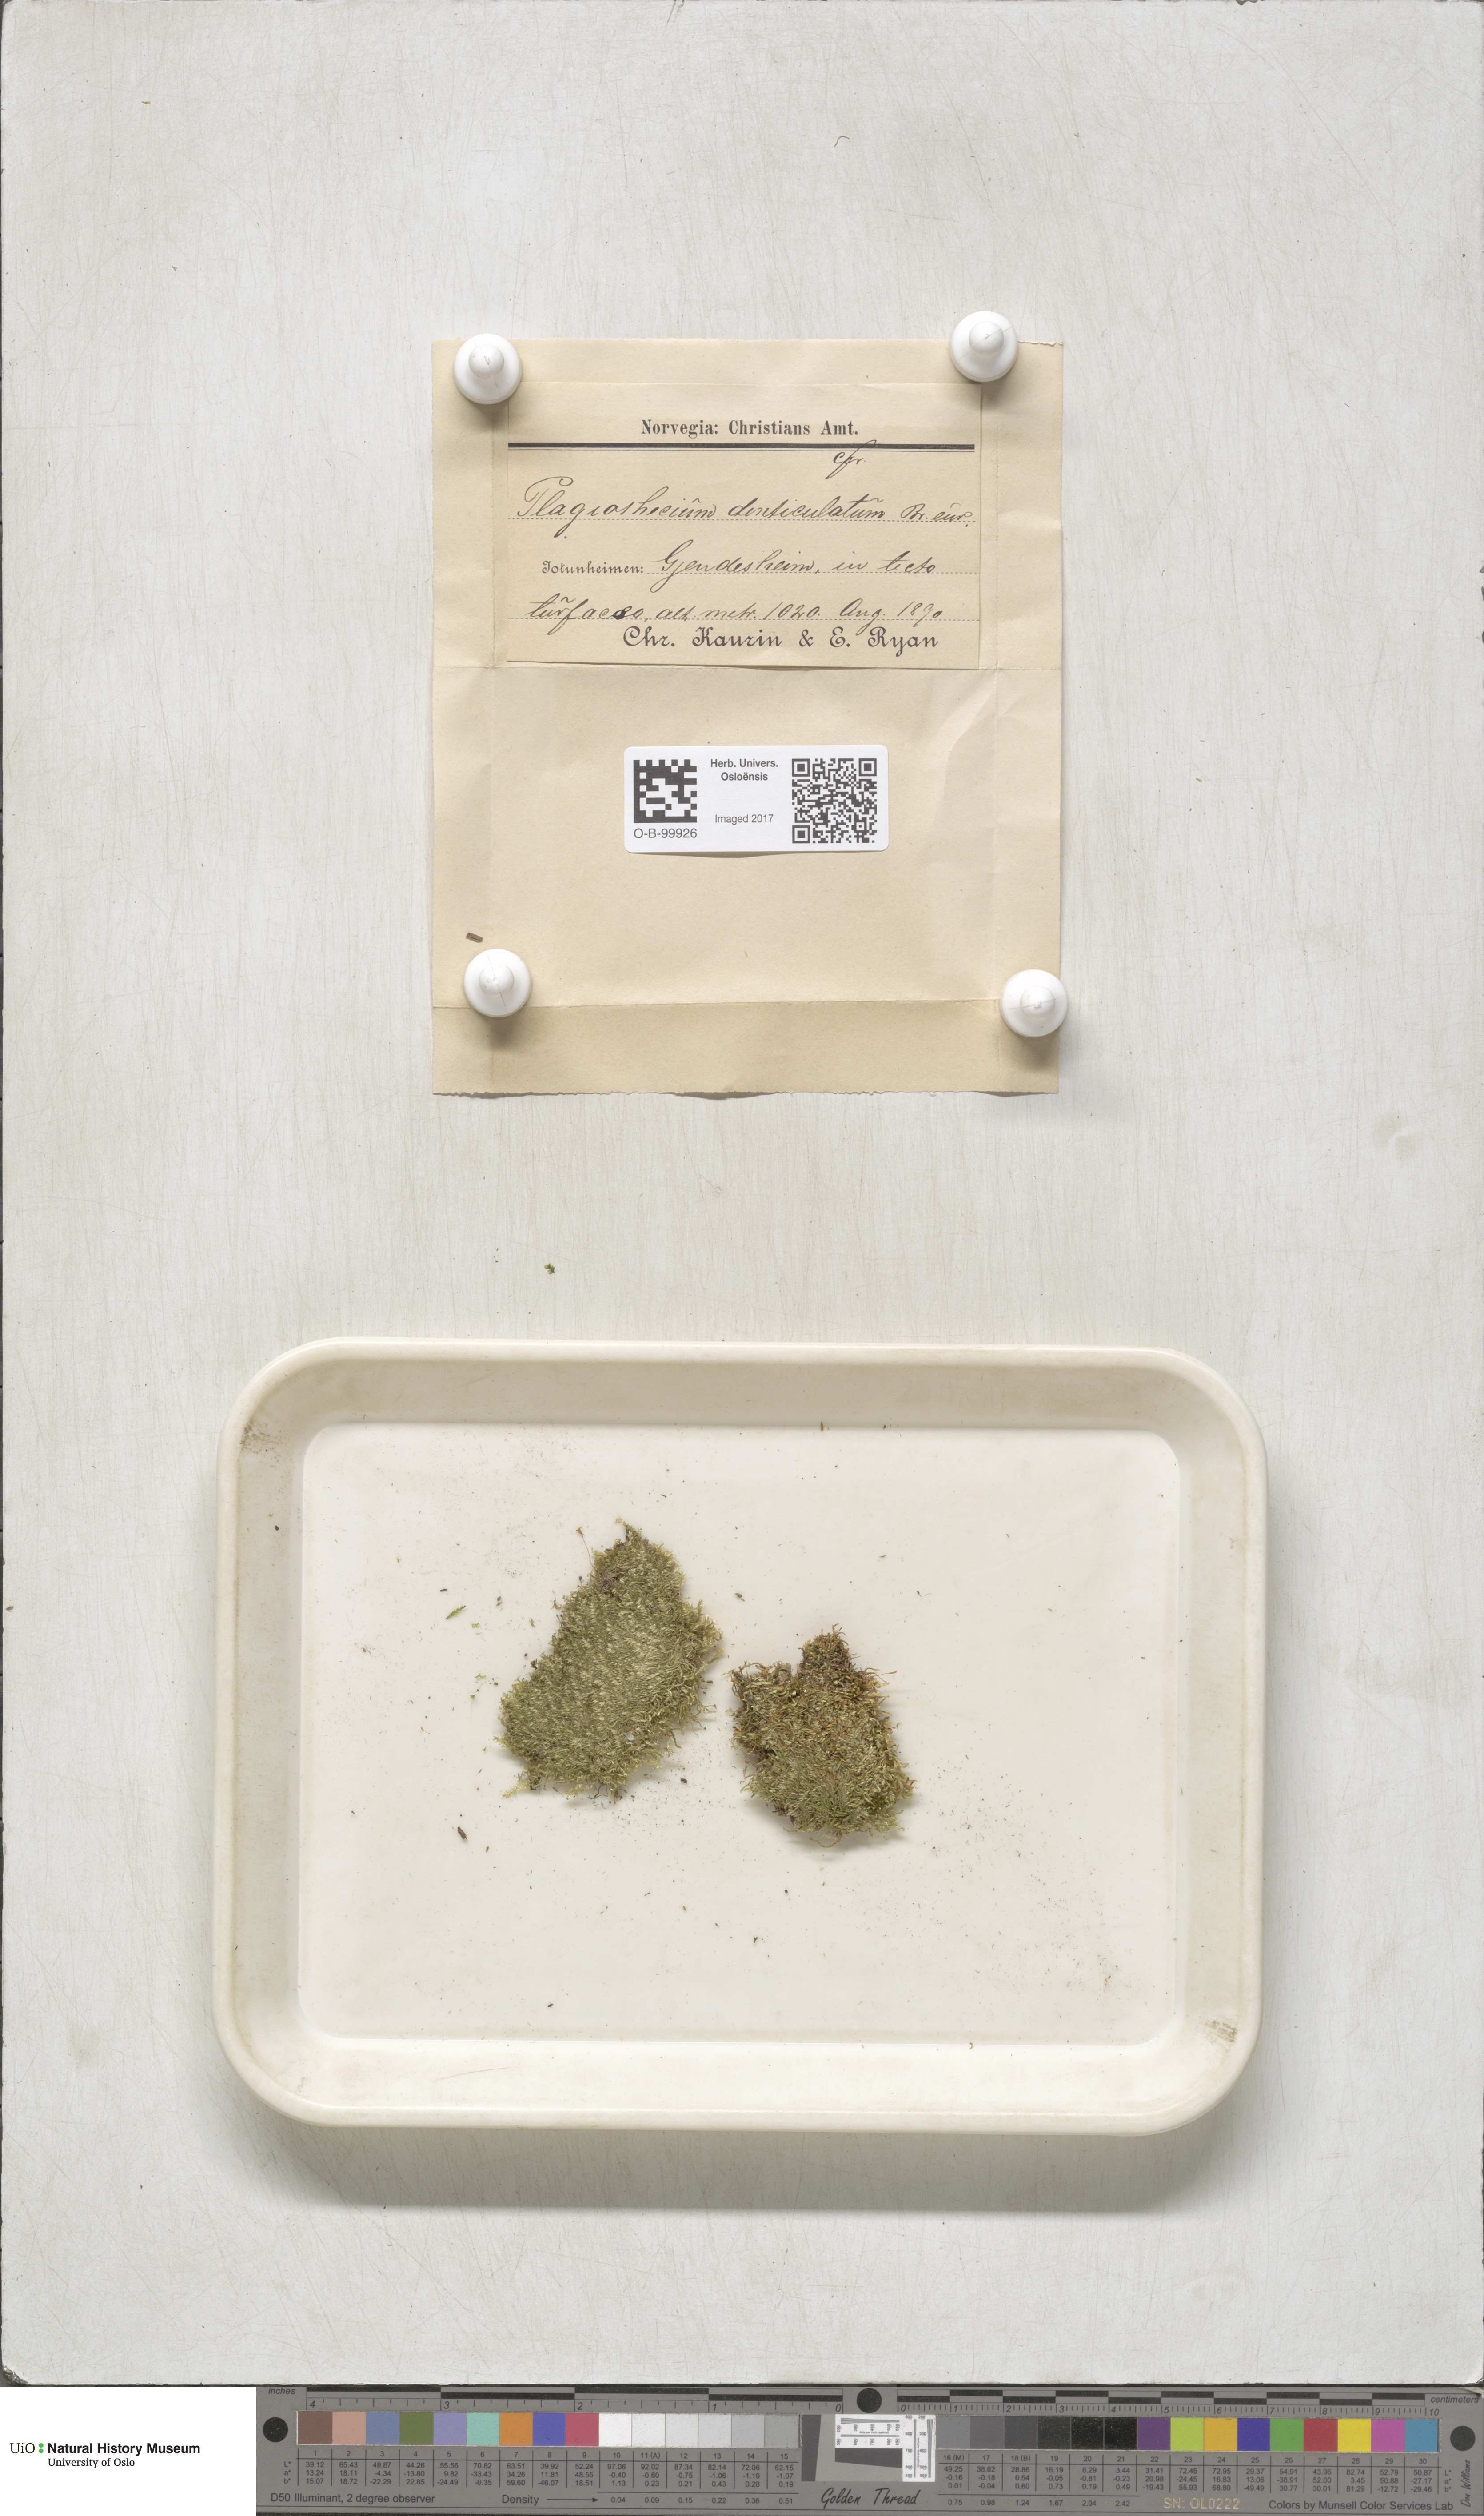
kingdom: Plantae
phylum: Bryophyta
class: Bryopsida
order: Hypnales
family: Plagiotheciaceae
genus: Plagiothecium
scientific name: Plagiothecium denticulatum
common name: Dented silk moss
